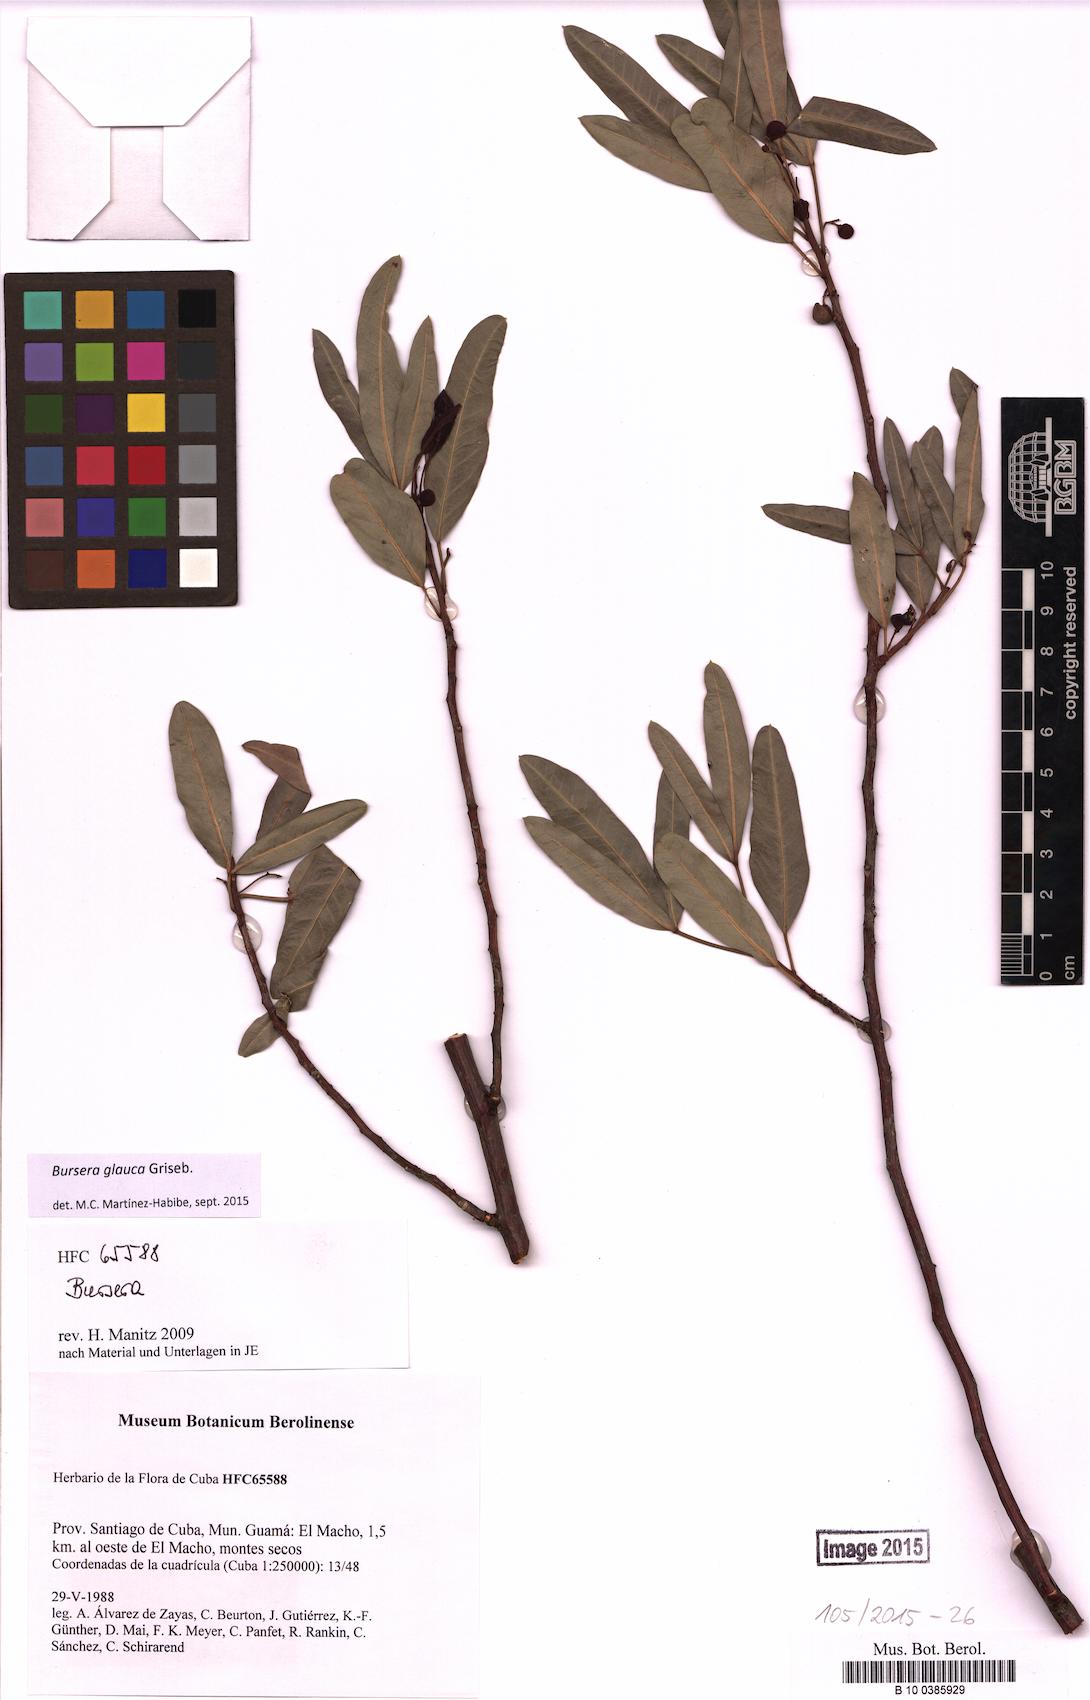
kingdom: Plantae
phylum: Tracheophyta
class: Magnoliopsida
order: Sapindales
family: Burseraceae
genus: Bursera
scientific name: Bursera glauca
